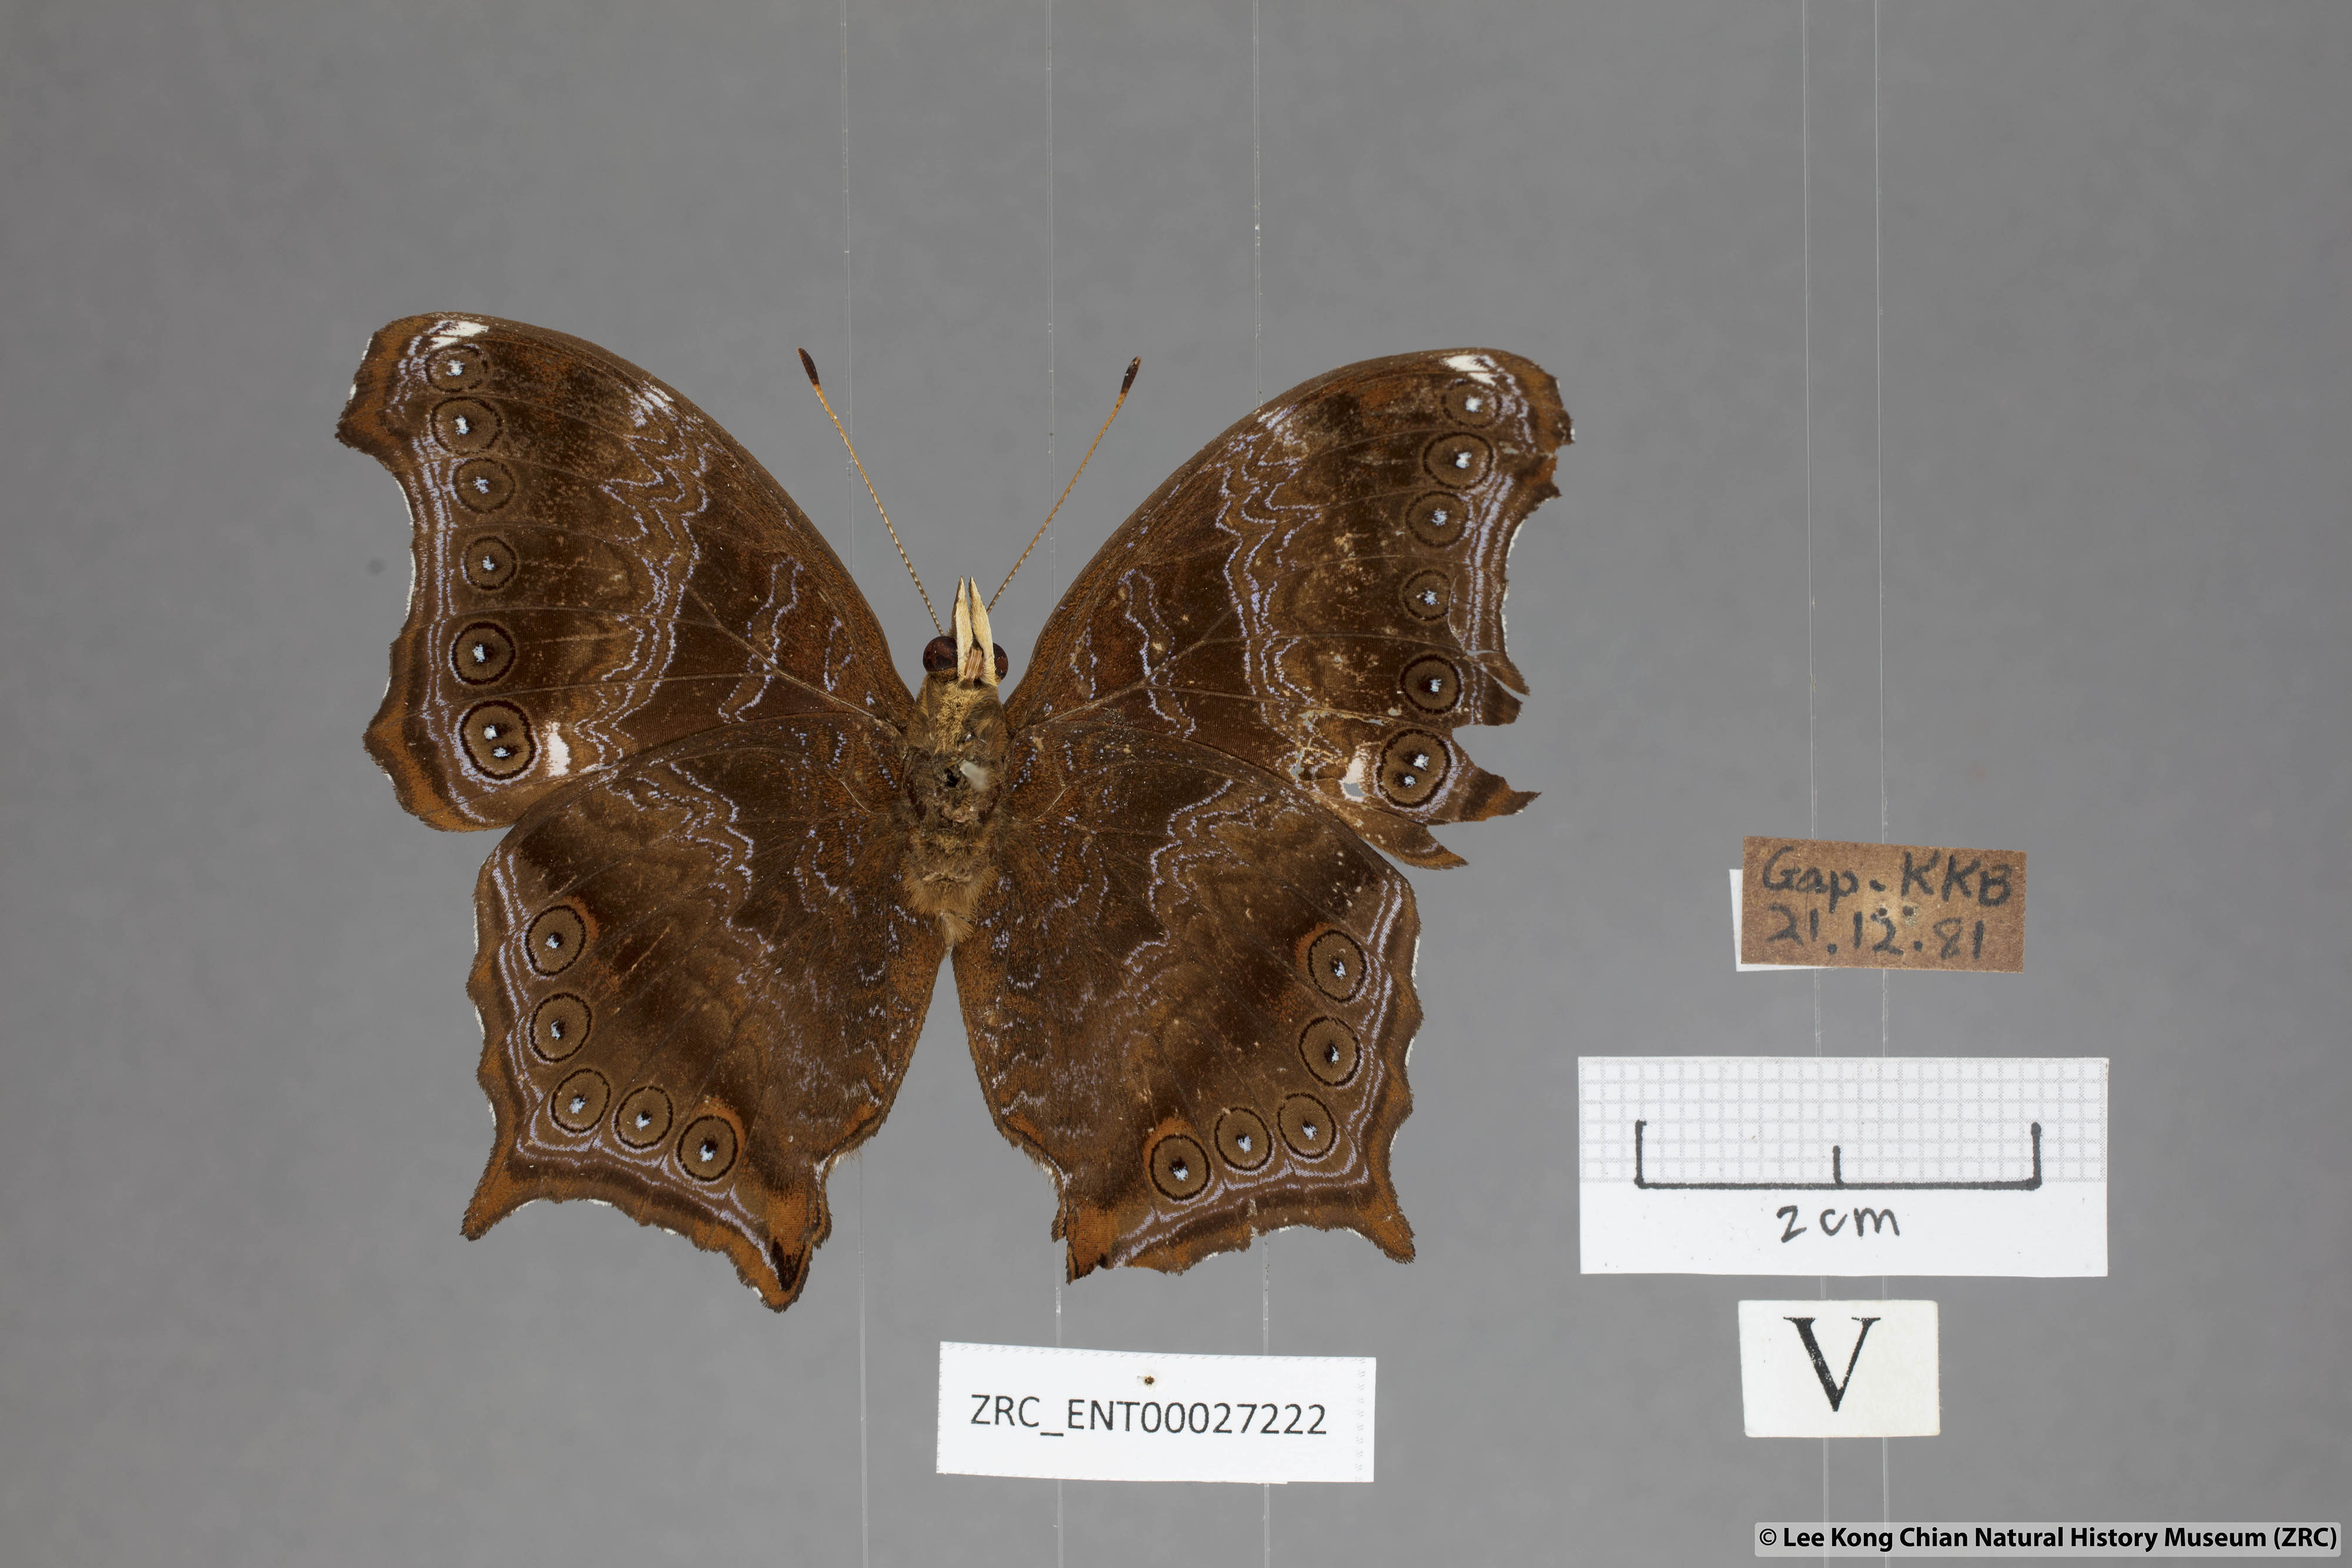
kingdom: Animalia
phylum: Arthropoda
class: Insecta
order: Lepidoptera
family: Nymphalidae
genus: Rhinopalpa
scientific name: Rhinopalpa polynice
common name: Wizard
